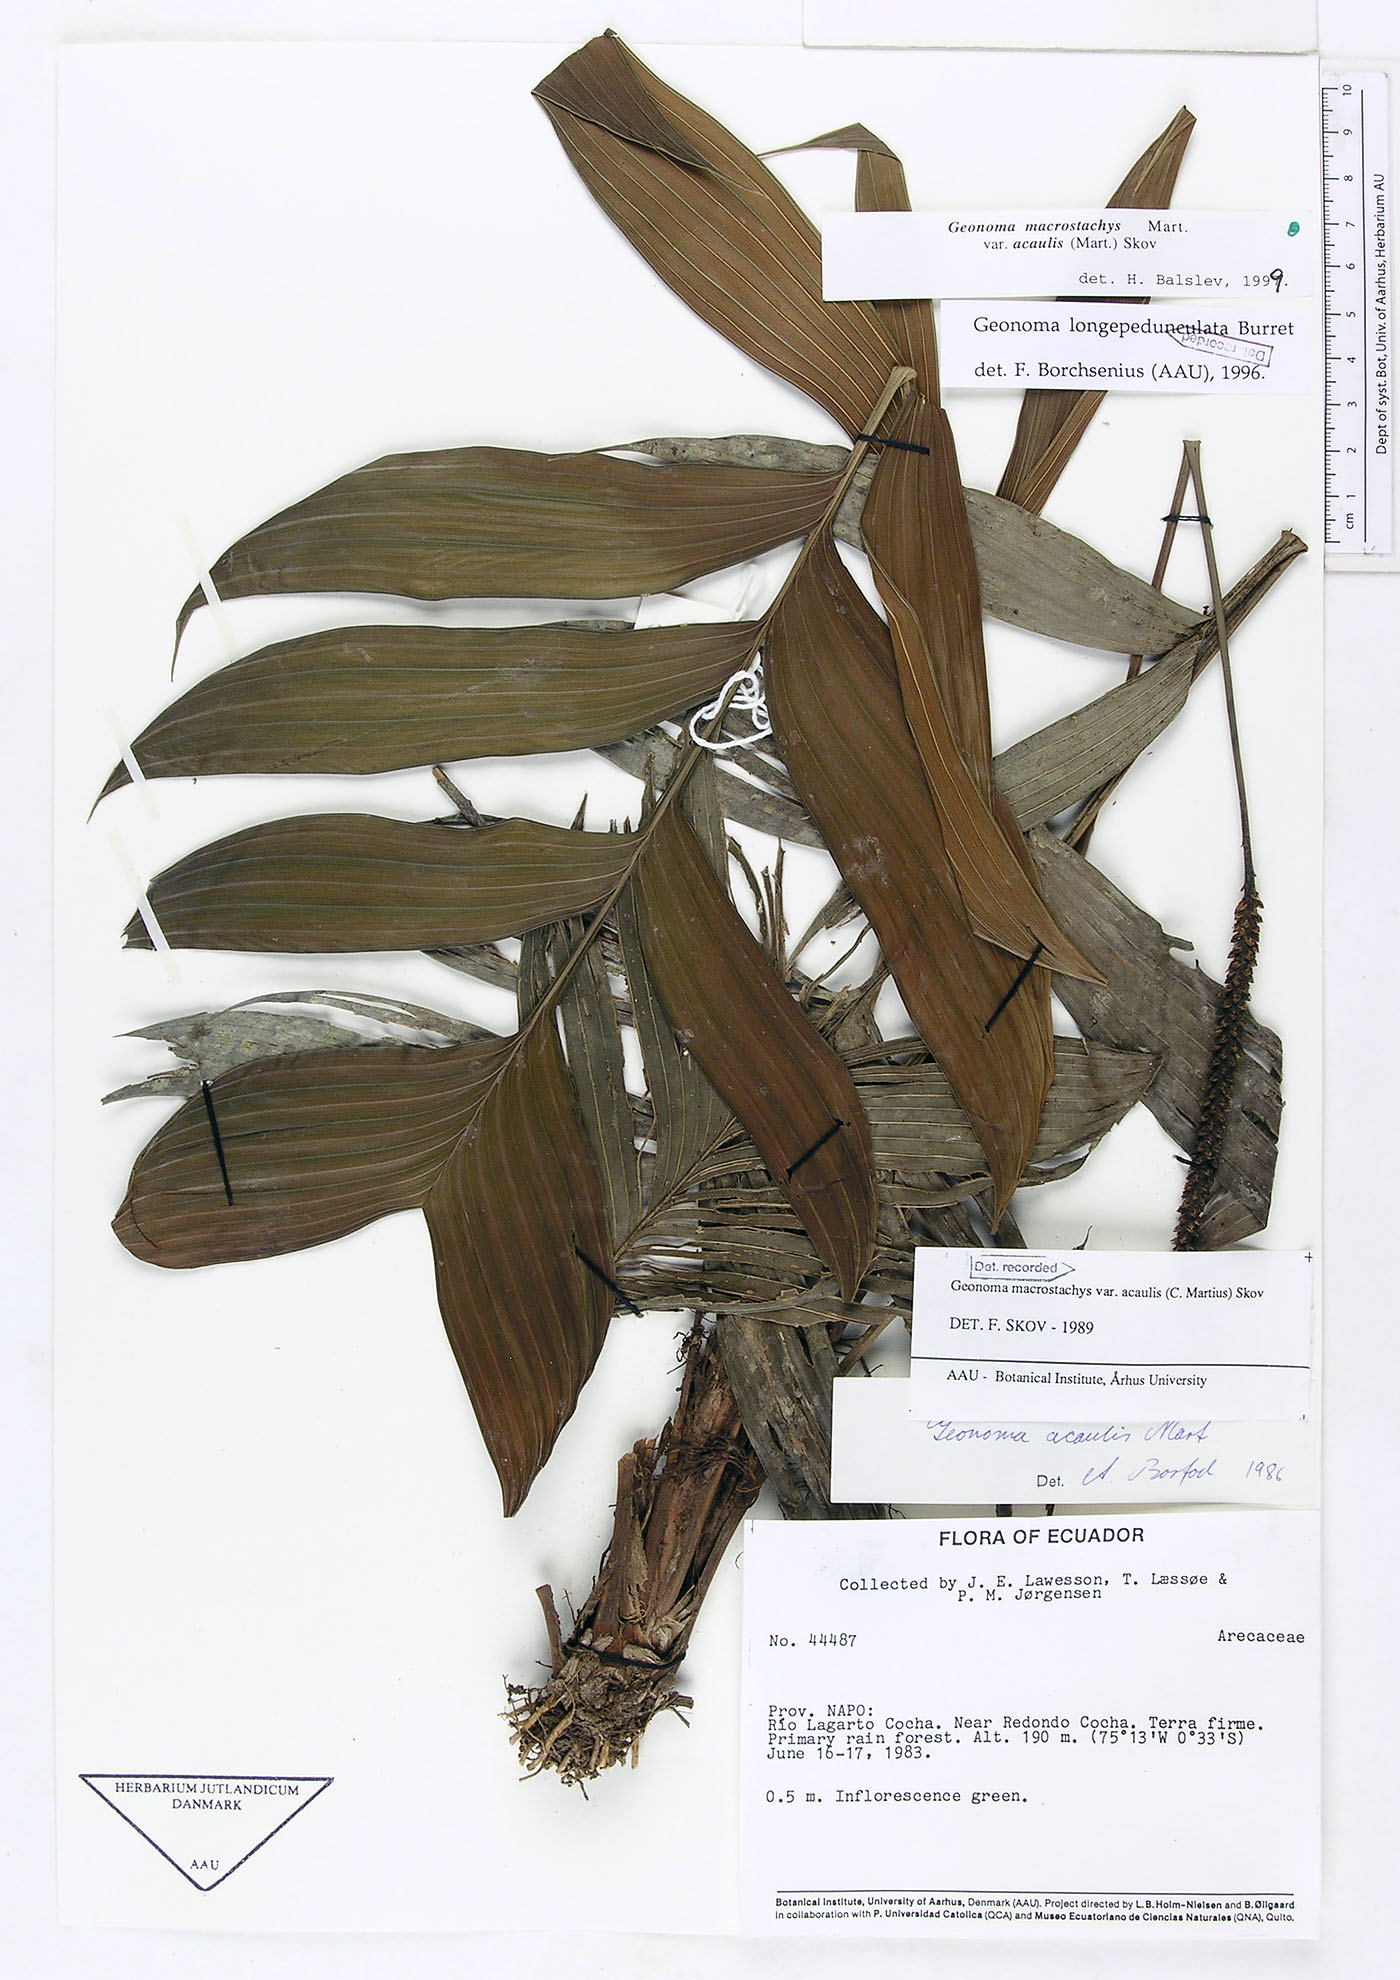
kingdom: Plantae
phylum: Tracheophyta
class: Liliopsida
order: Arecales
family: Arecaceae
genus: Geonoma
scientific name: Geonoma macrostachys
